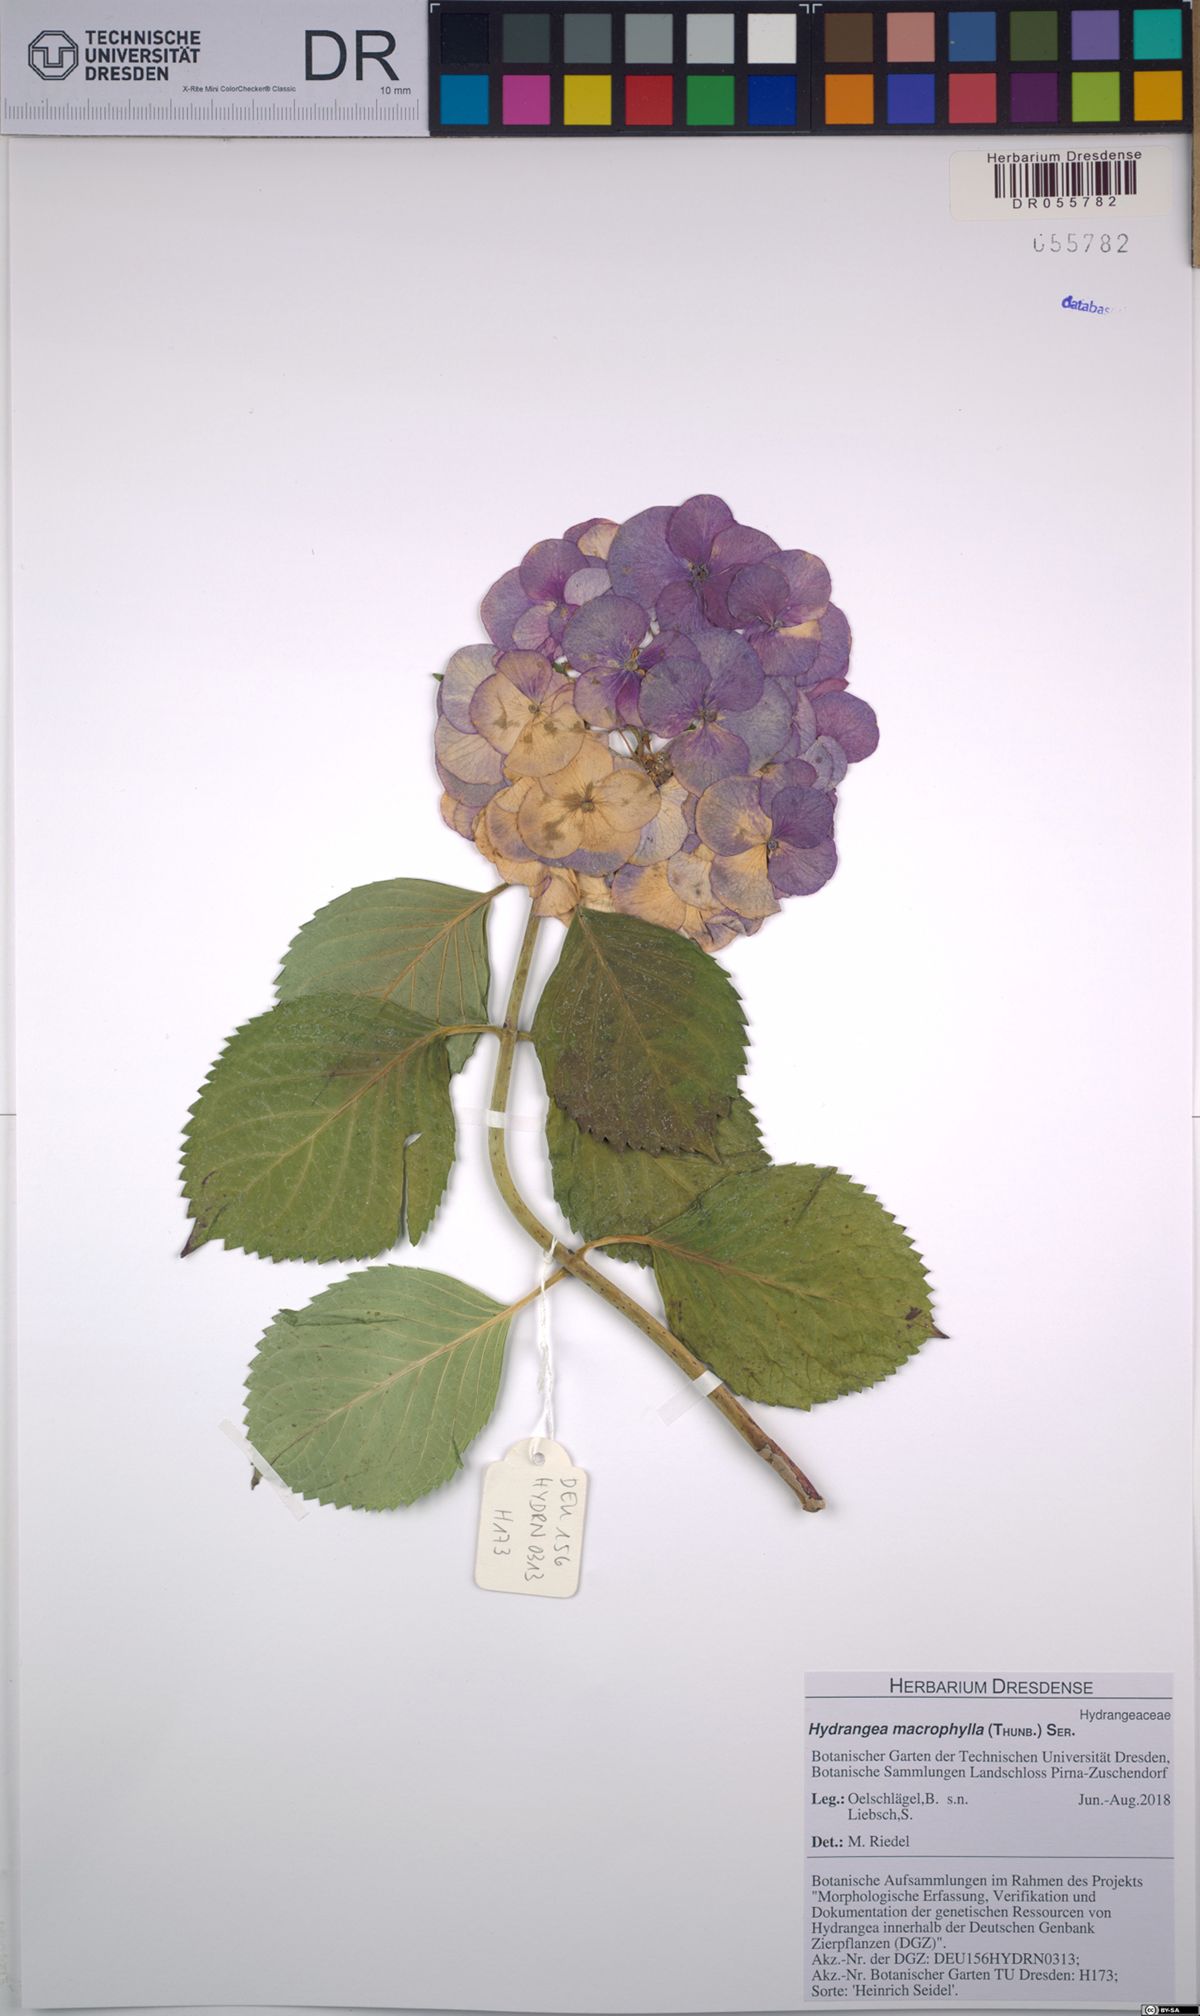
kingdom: Plantae
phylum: Tracheophyta
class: Magnoliopsida
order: Cornales
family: Hydrangeaceae
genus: Hydrangea
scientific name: Hydrangea macrophylla
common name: Hydrangea
